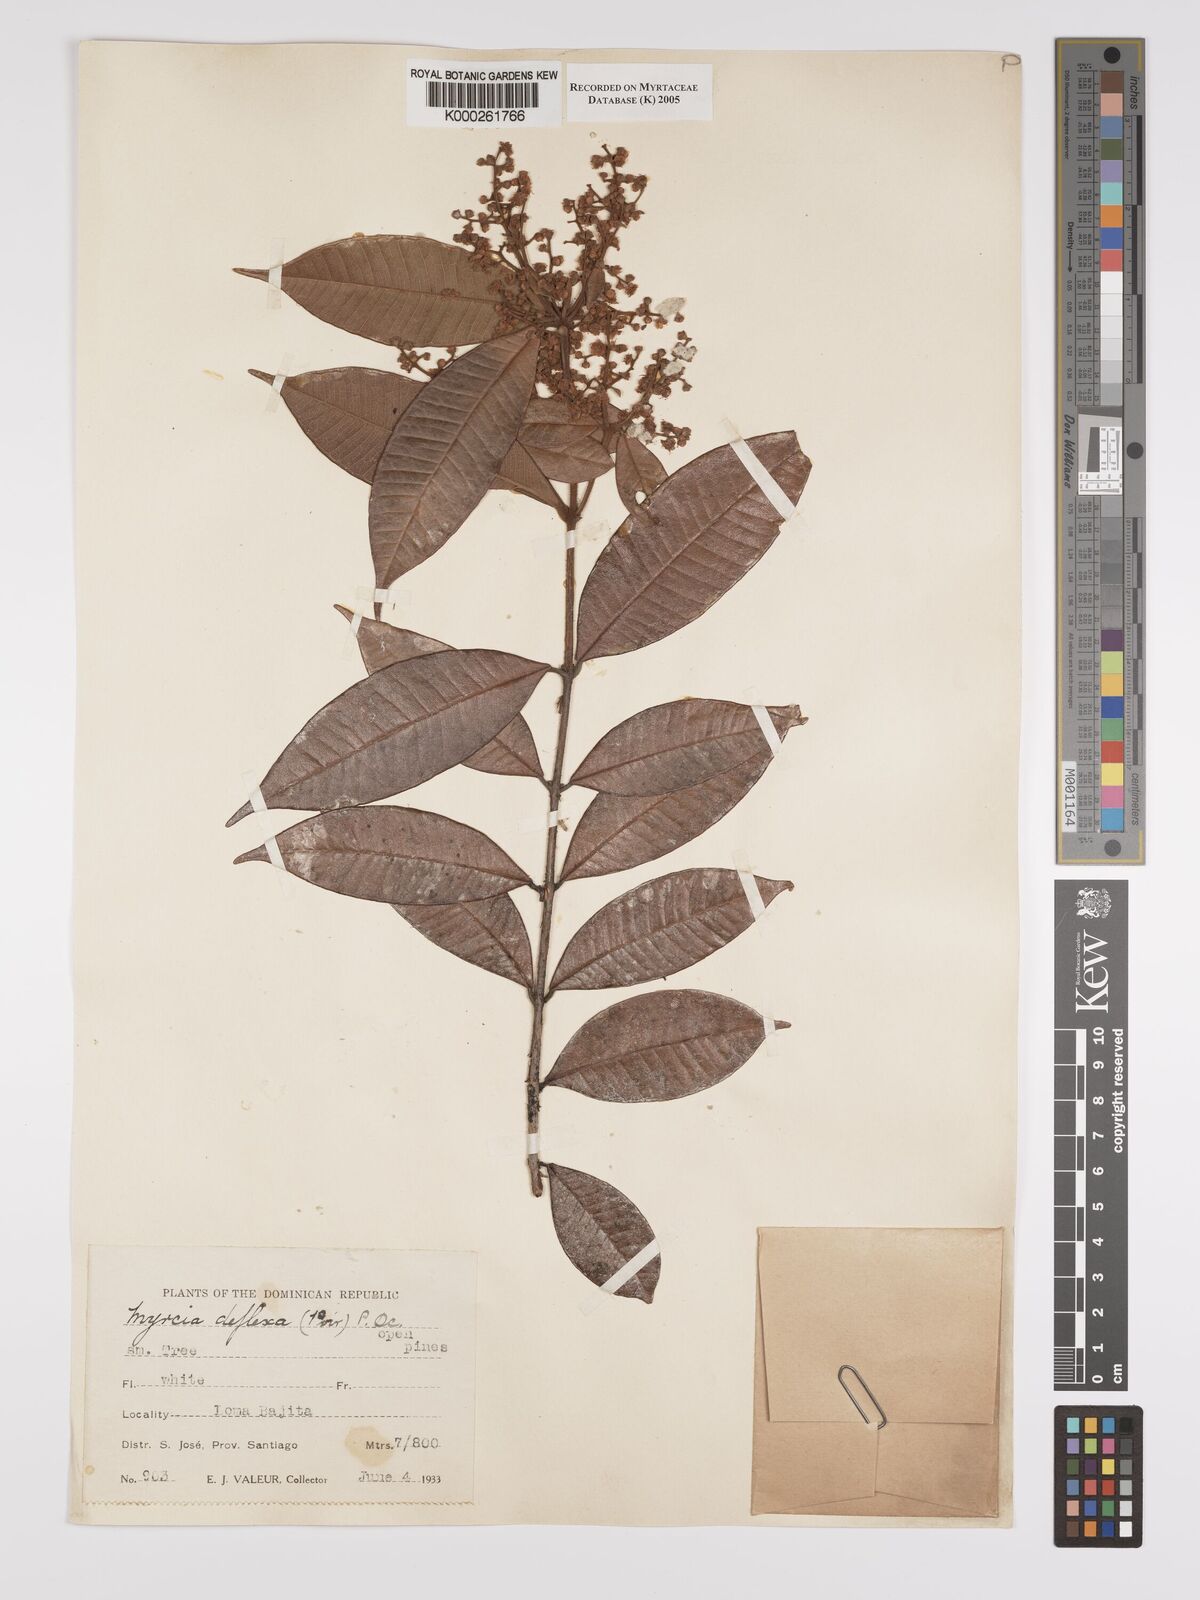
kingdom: Plantae
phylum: Tracheophyta
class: Magnoliopsida
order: Myrtales
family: Myrtaceae
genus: Myrcia
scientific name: Myrcia deflexa
